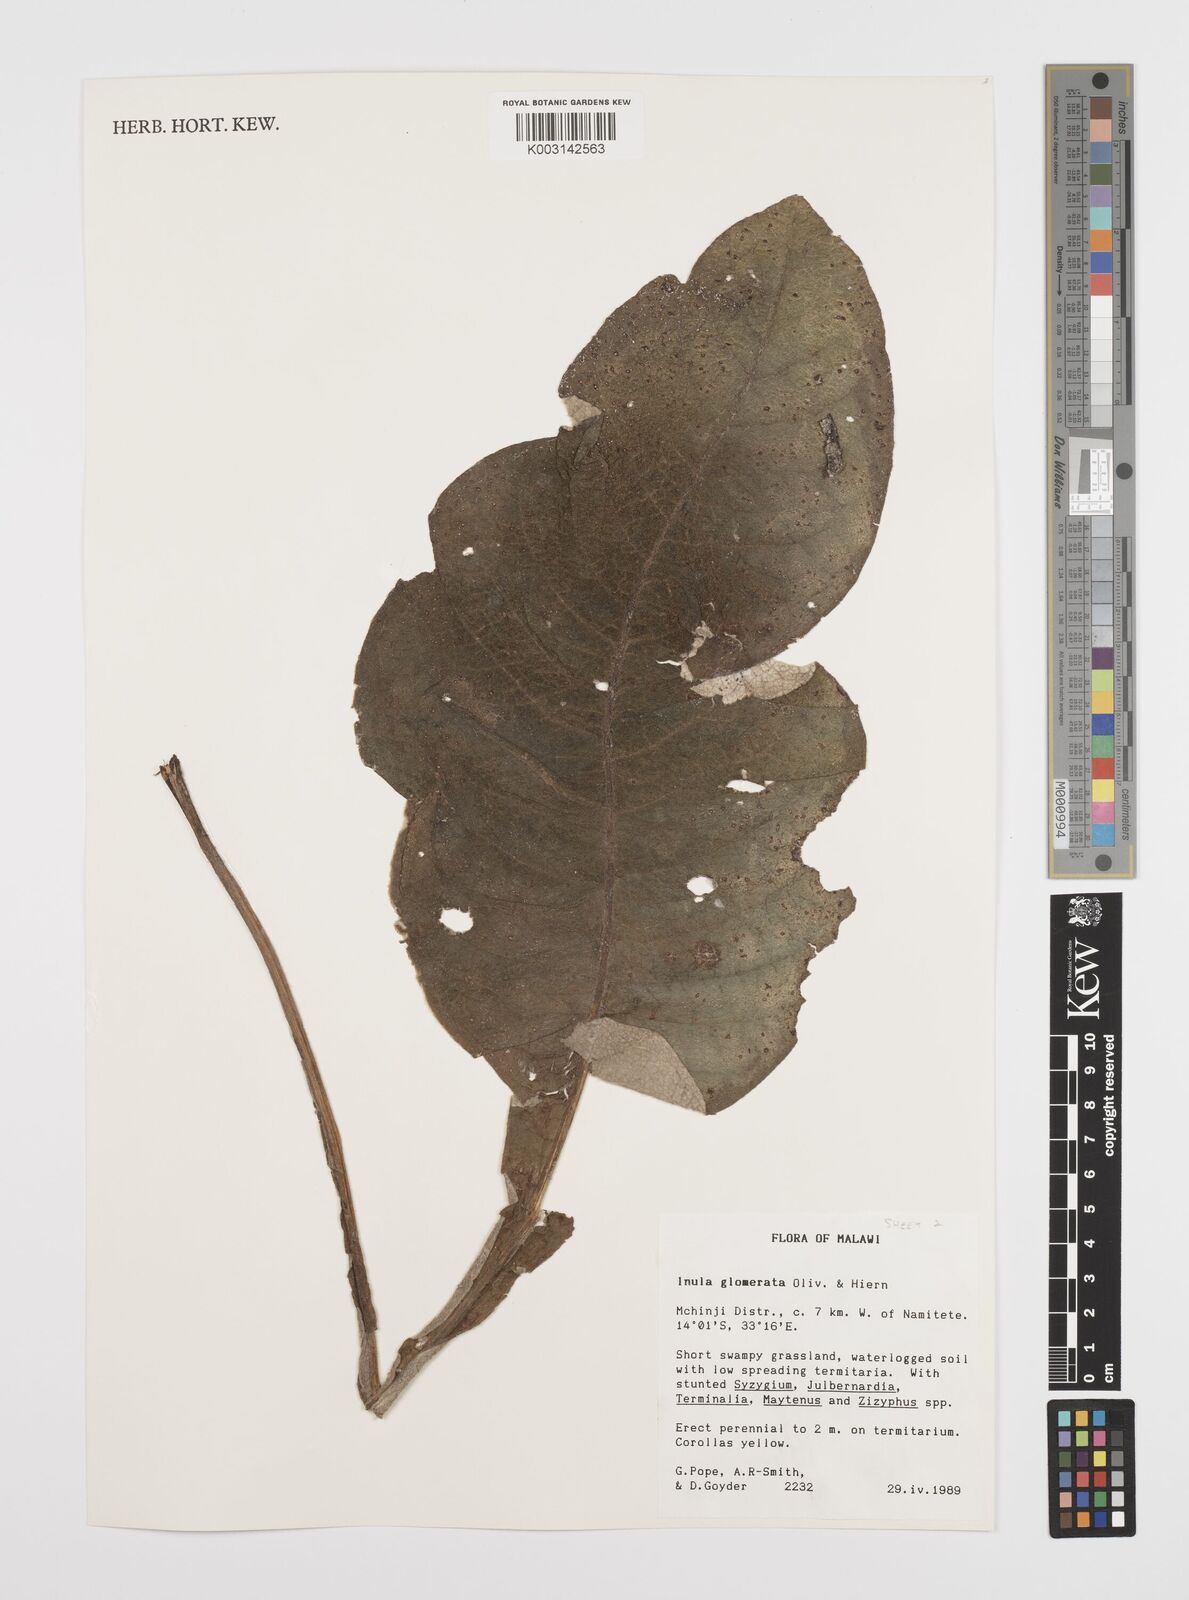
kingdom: Plantae
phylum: Tracheophyta
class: Magnoliopsida
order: Asterales
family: Asteraceae
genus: Inula
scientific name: Inula glomerata
